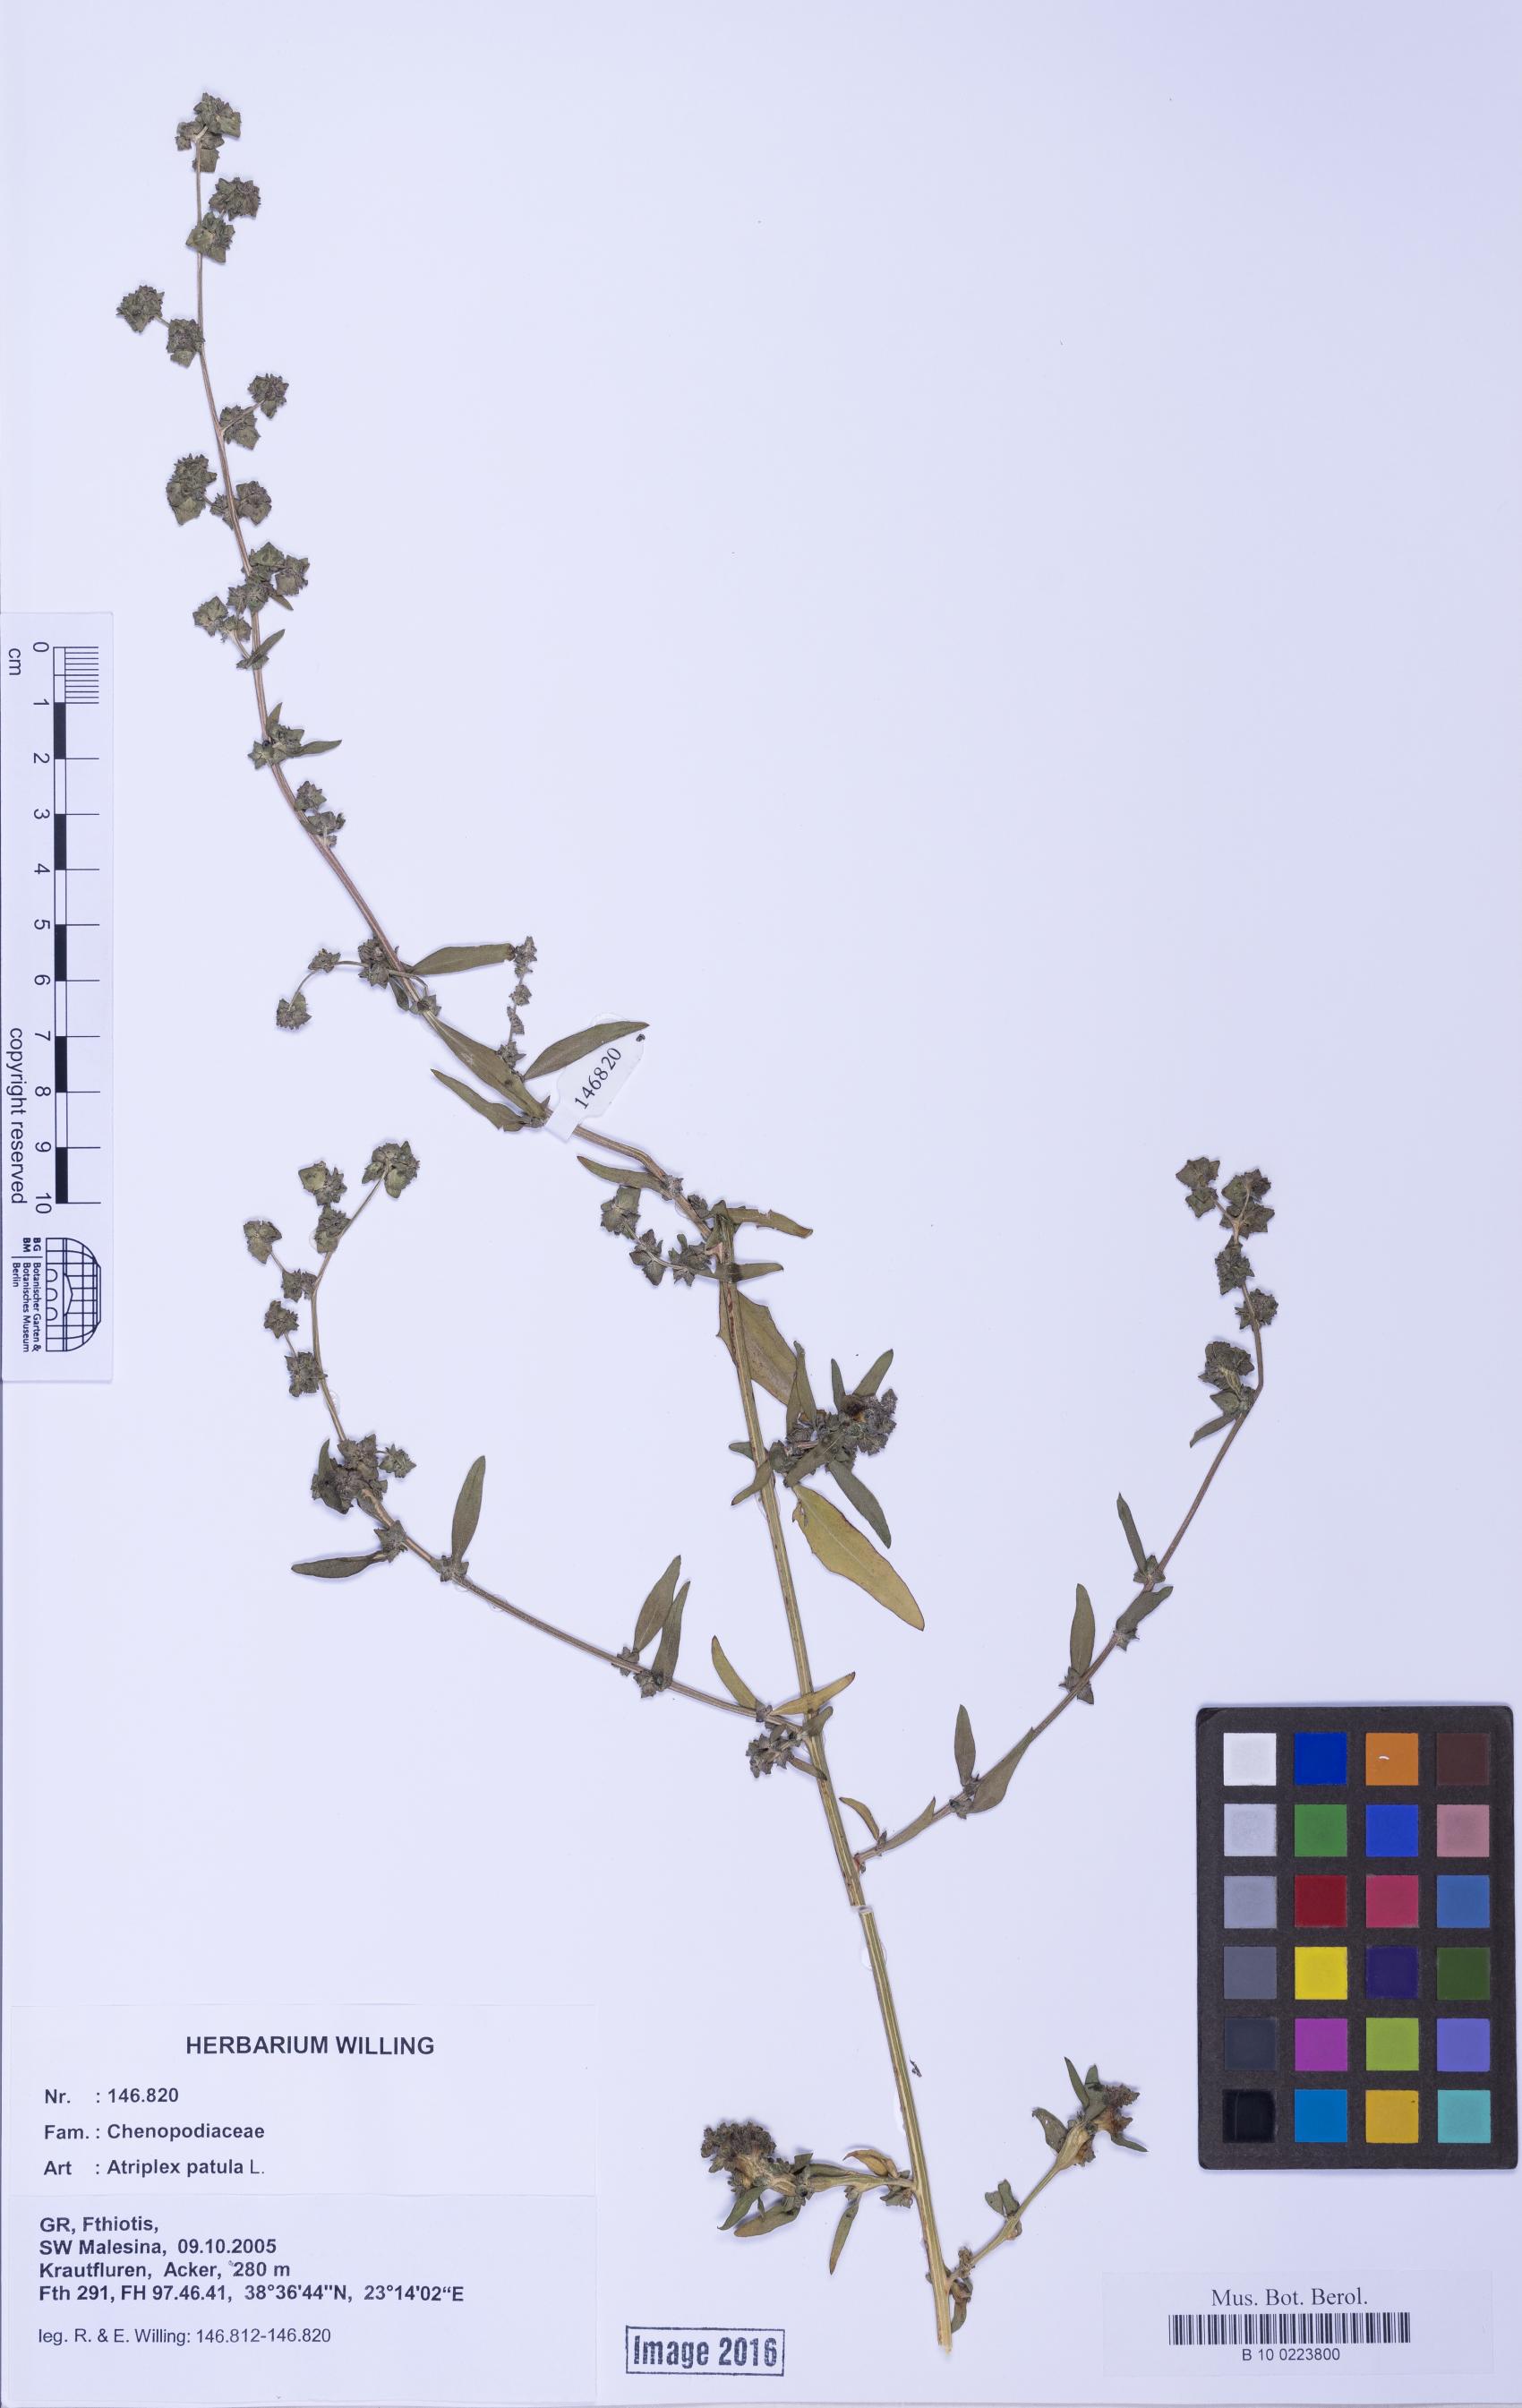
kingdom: Plantae
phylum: Tracheophyta
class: Magnoliopsida
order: Caryophyllales
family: Amaranthaceae
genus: Atriplex
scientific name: Atriplex patula
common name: Common orache
